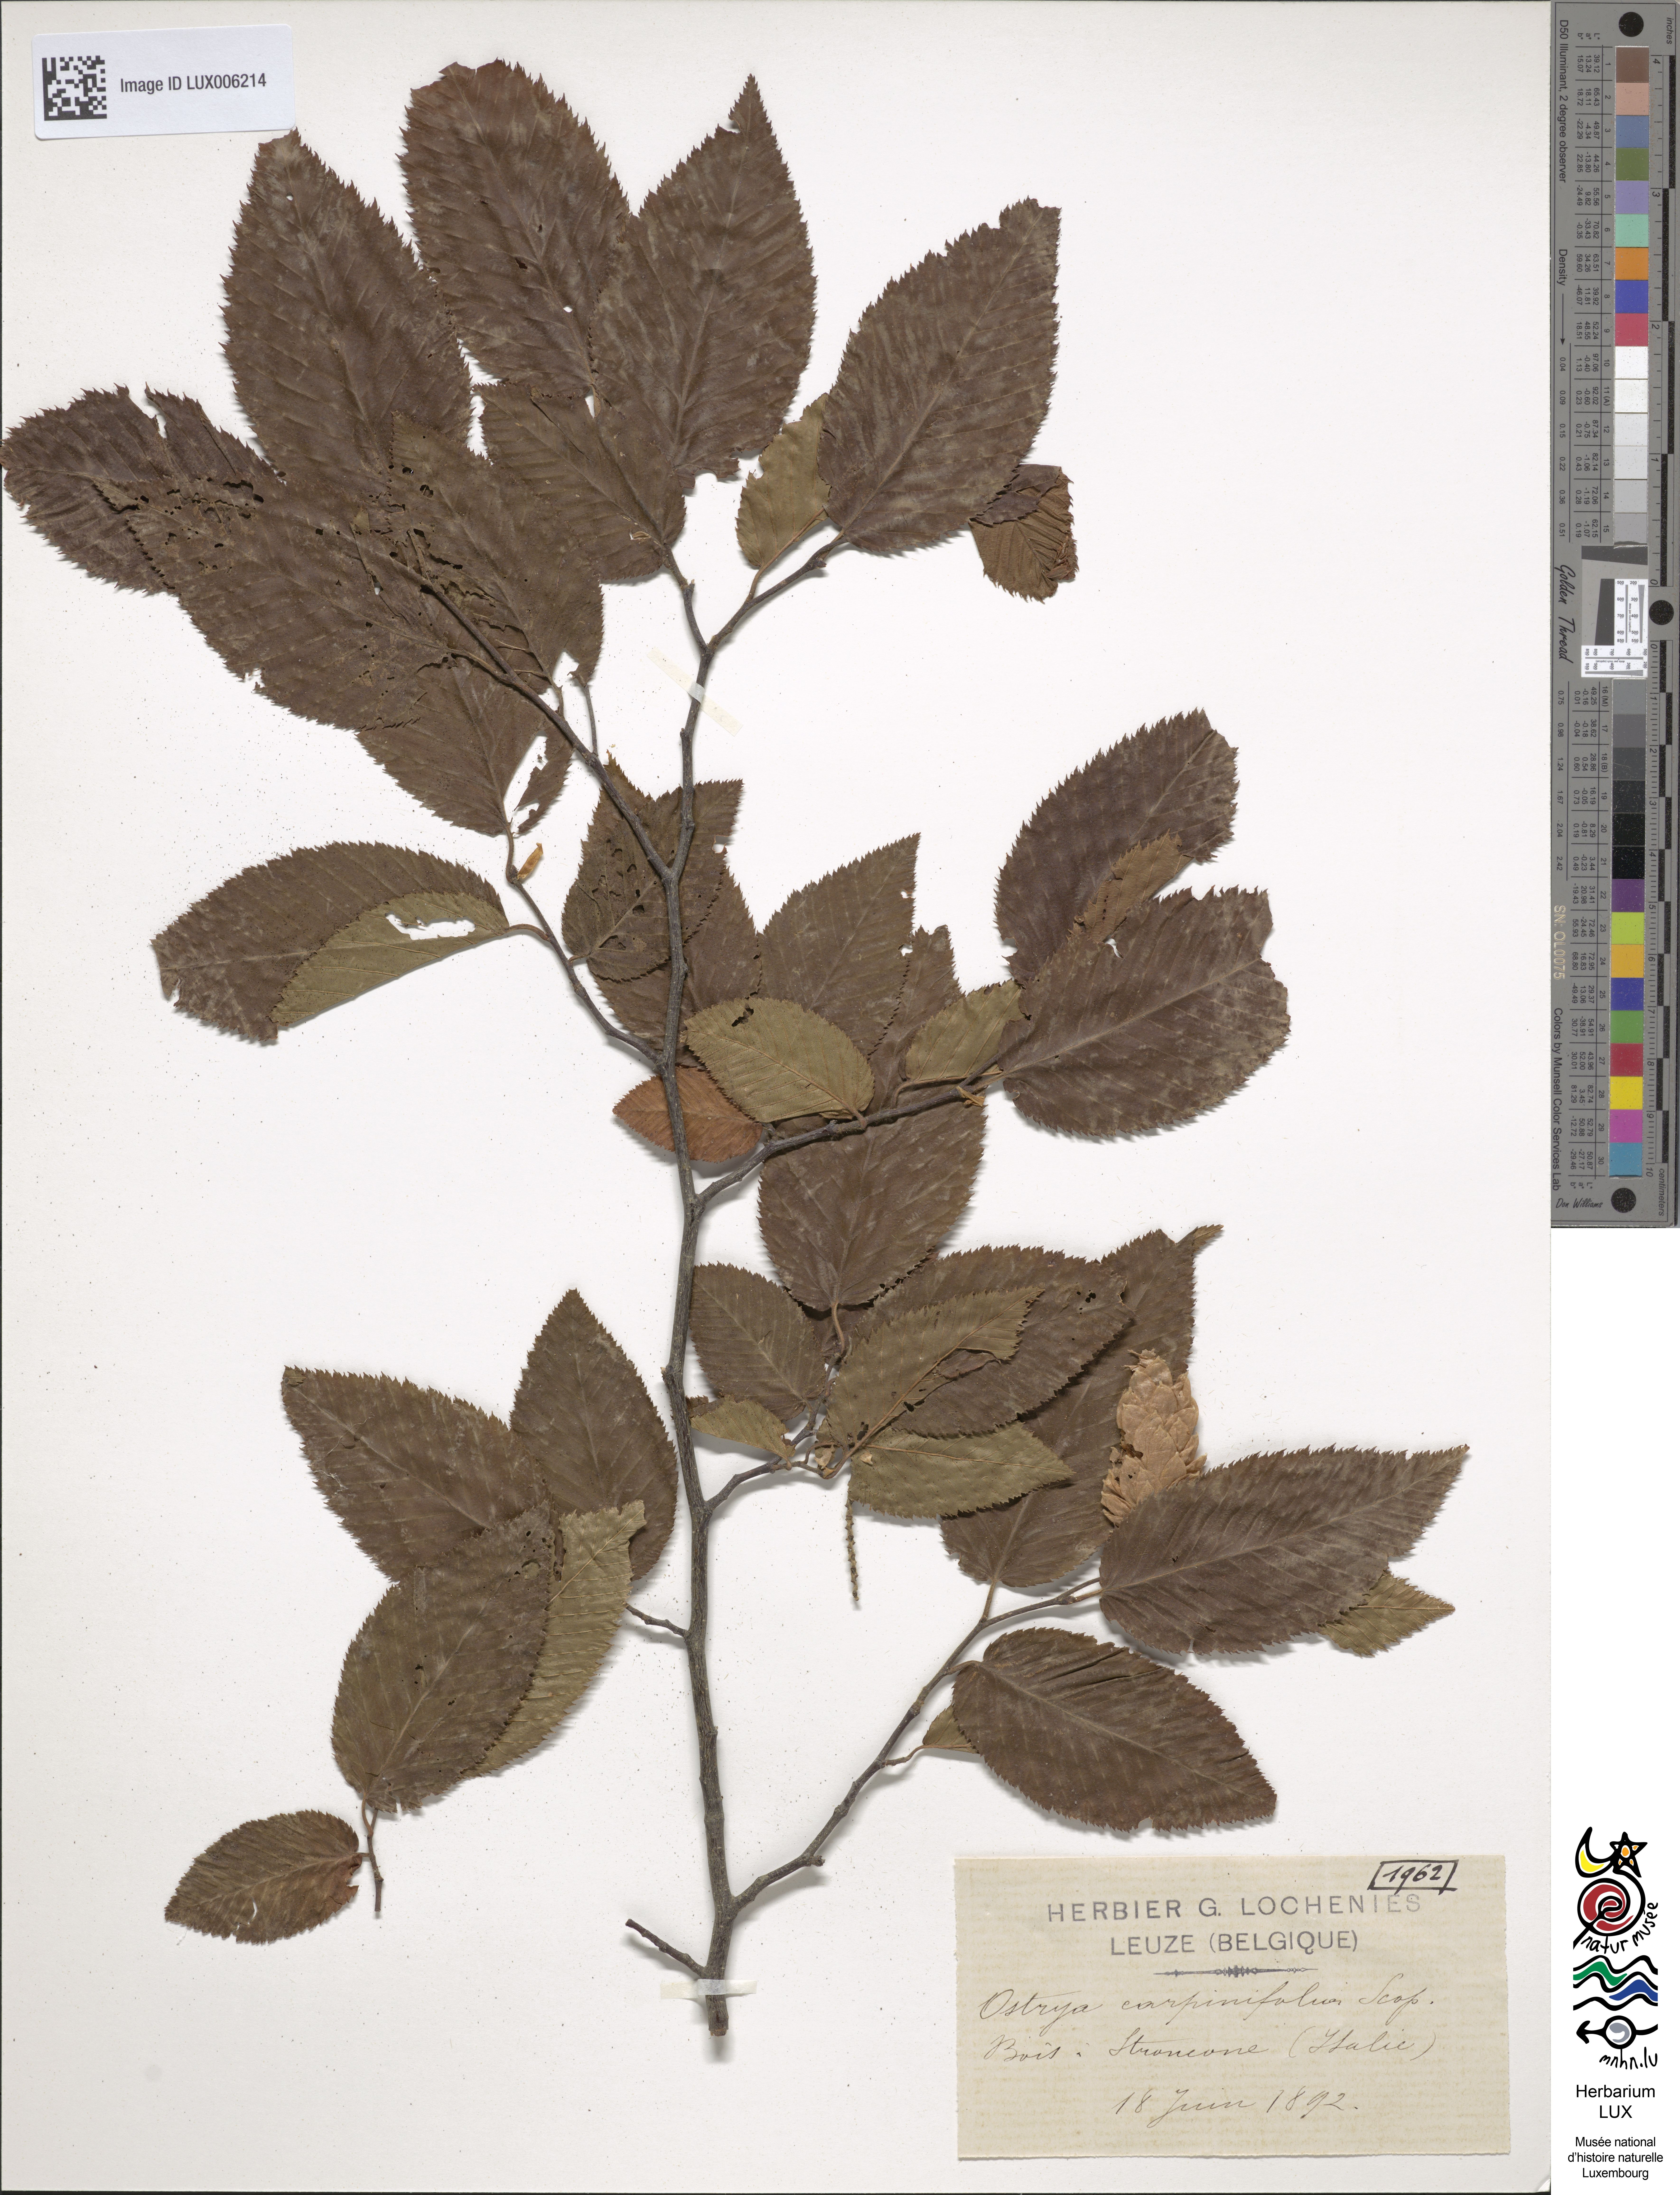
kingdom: Plantae
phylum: Tracheophyta
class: Magnoliopsida
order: Fagales
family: Betulaceae
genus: Ostrya
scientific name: Ostrya carpinifolia
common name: European hop-hornbeam
